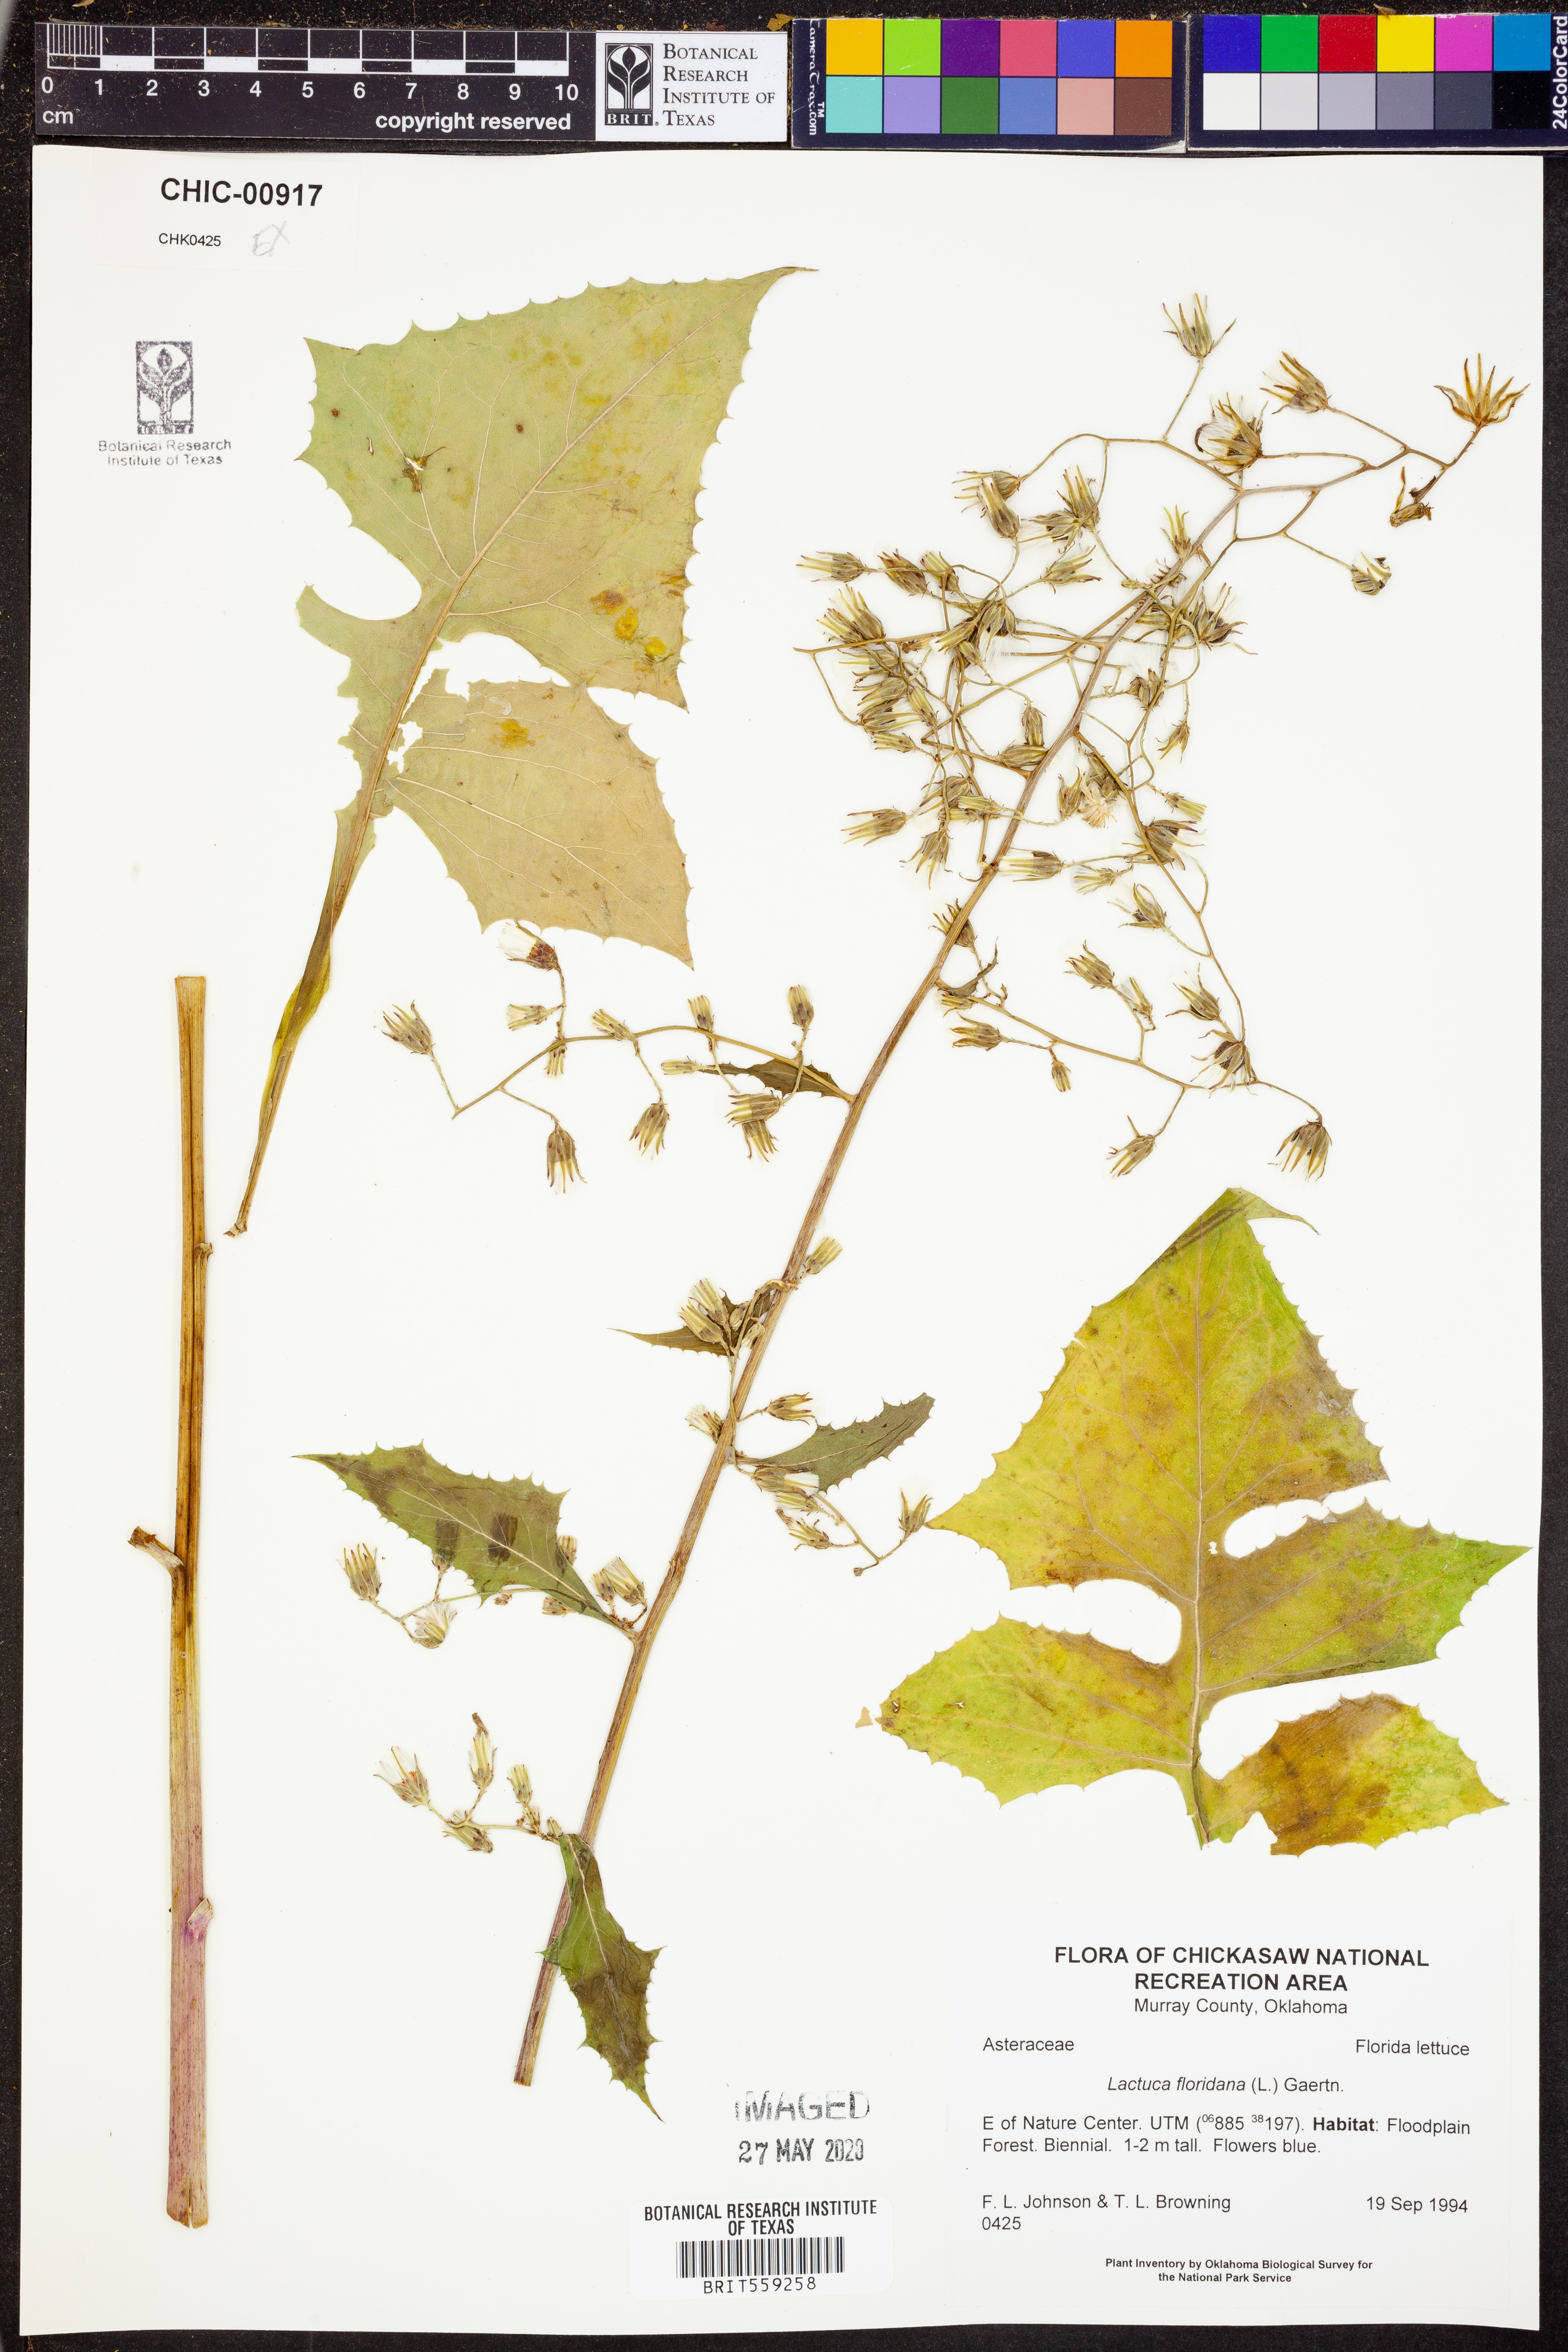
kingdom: Plantae
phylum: Tracheophyta
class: Magnoliopsida
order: Asterales
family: Asteraceae
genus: Lactuca
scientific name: Lactuca floridana
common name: Woodland lettuce
